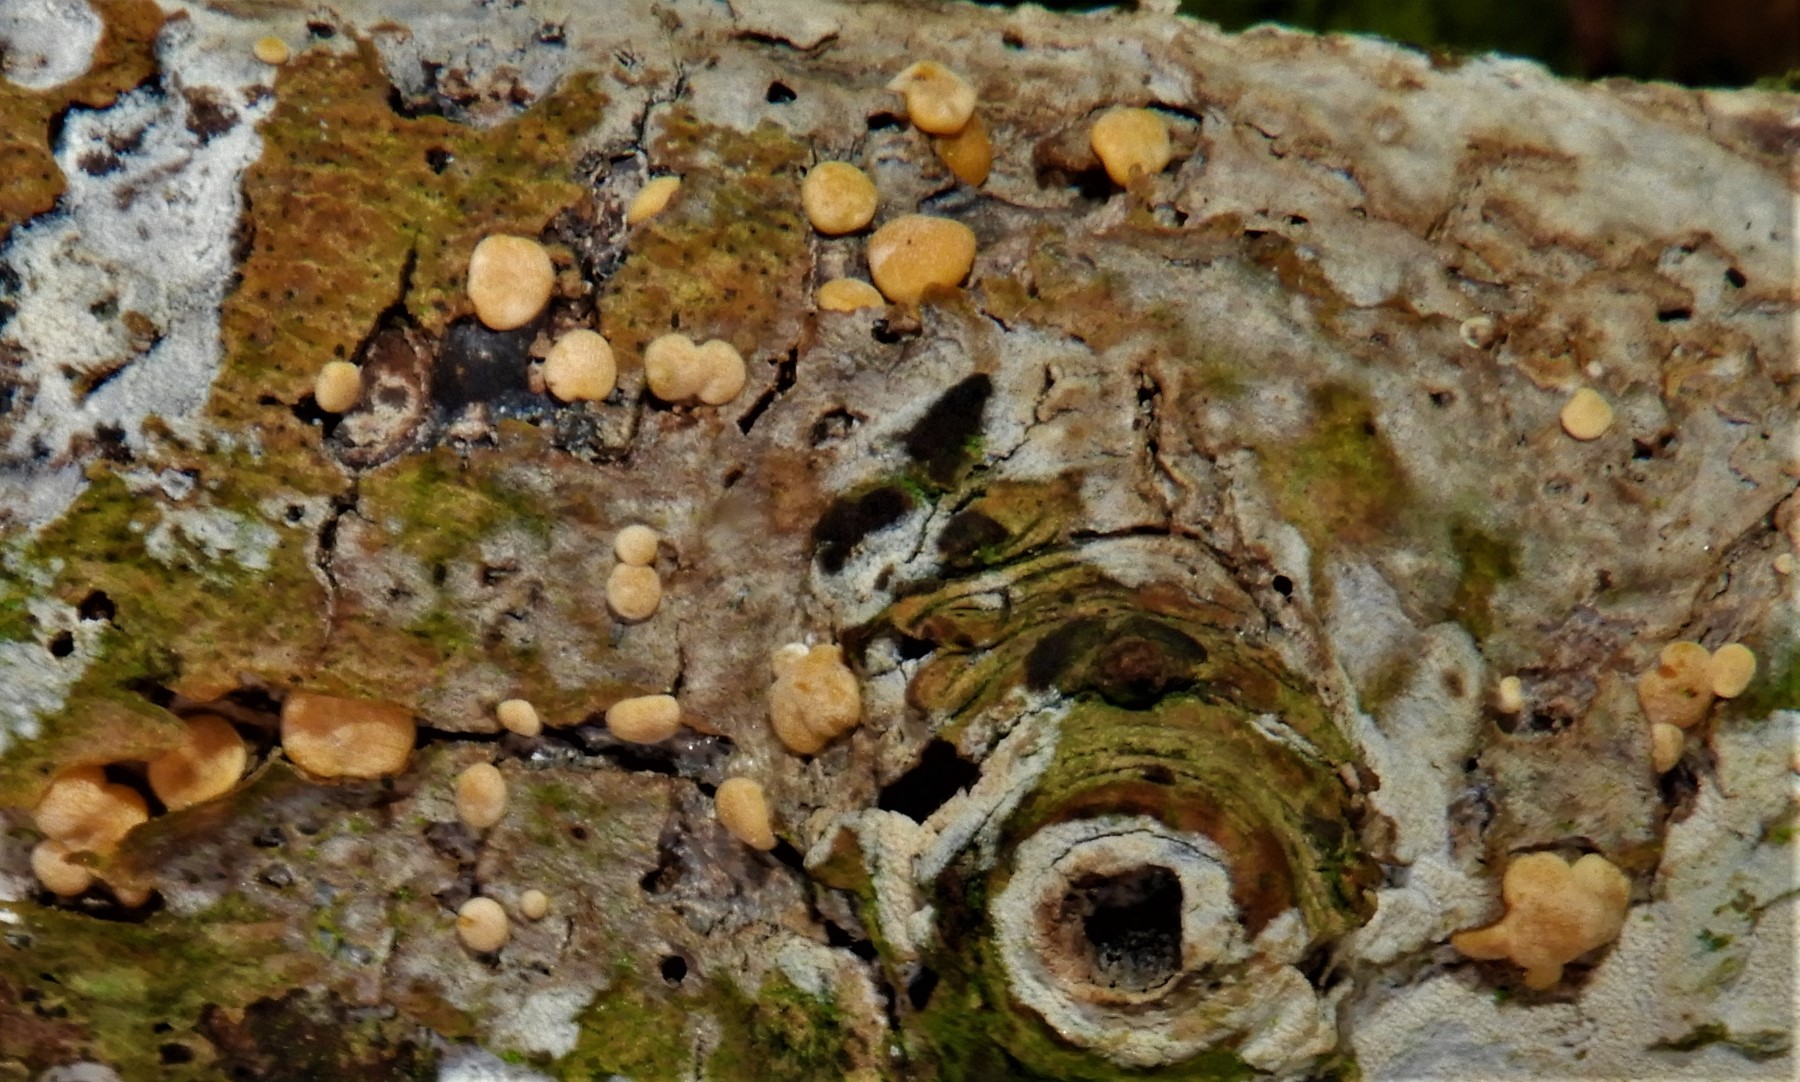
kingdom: Fungi
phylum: Ascomycota
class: Sordariomycetes
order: Hypocreales
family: Hypocreaceae
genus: Trichoderma
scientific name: Trichoderma
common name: kødkerne
